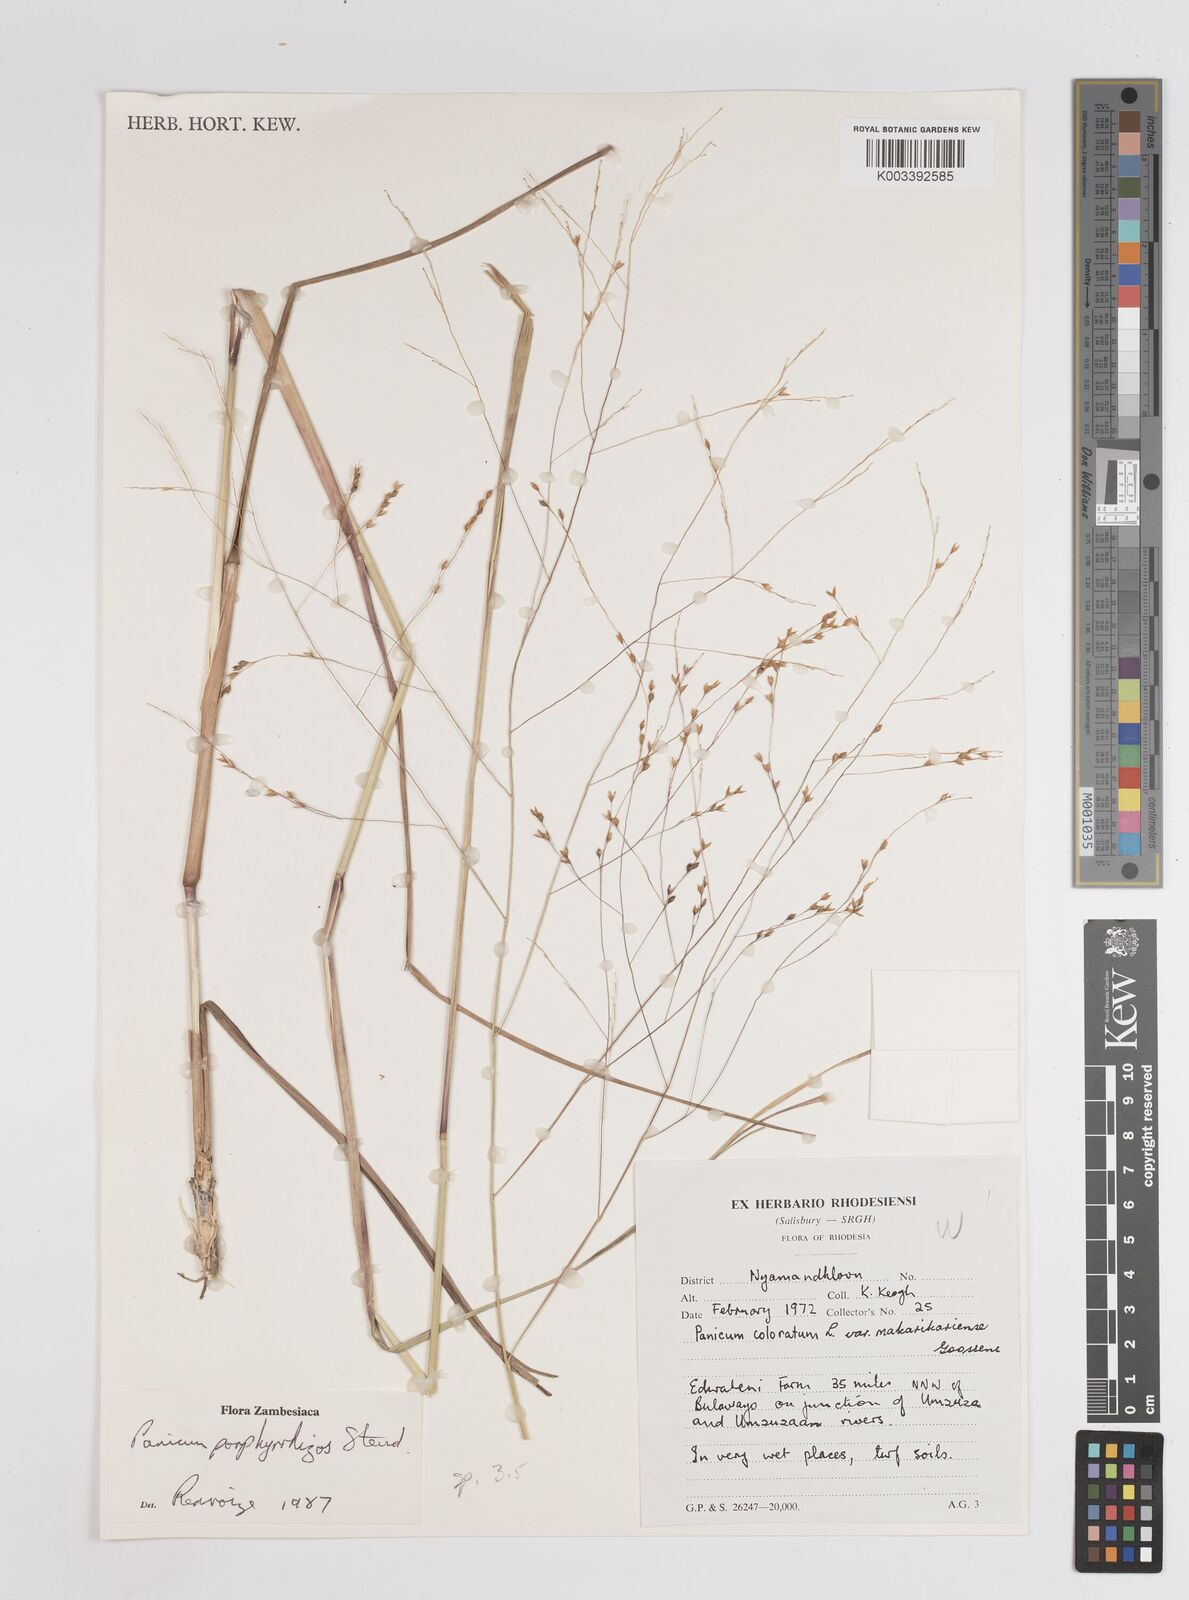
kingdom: Plantae
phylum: Tracheophyta
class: Liliopsida
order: Poales
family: Poaceae
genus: Panicum
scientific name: Panicum porphyrrhizos
